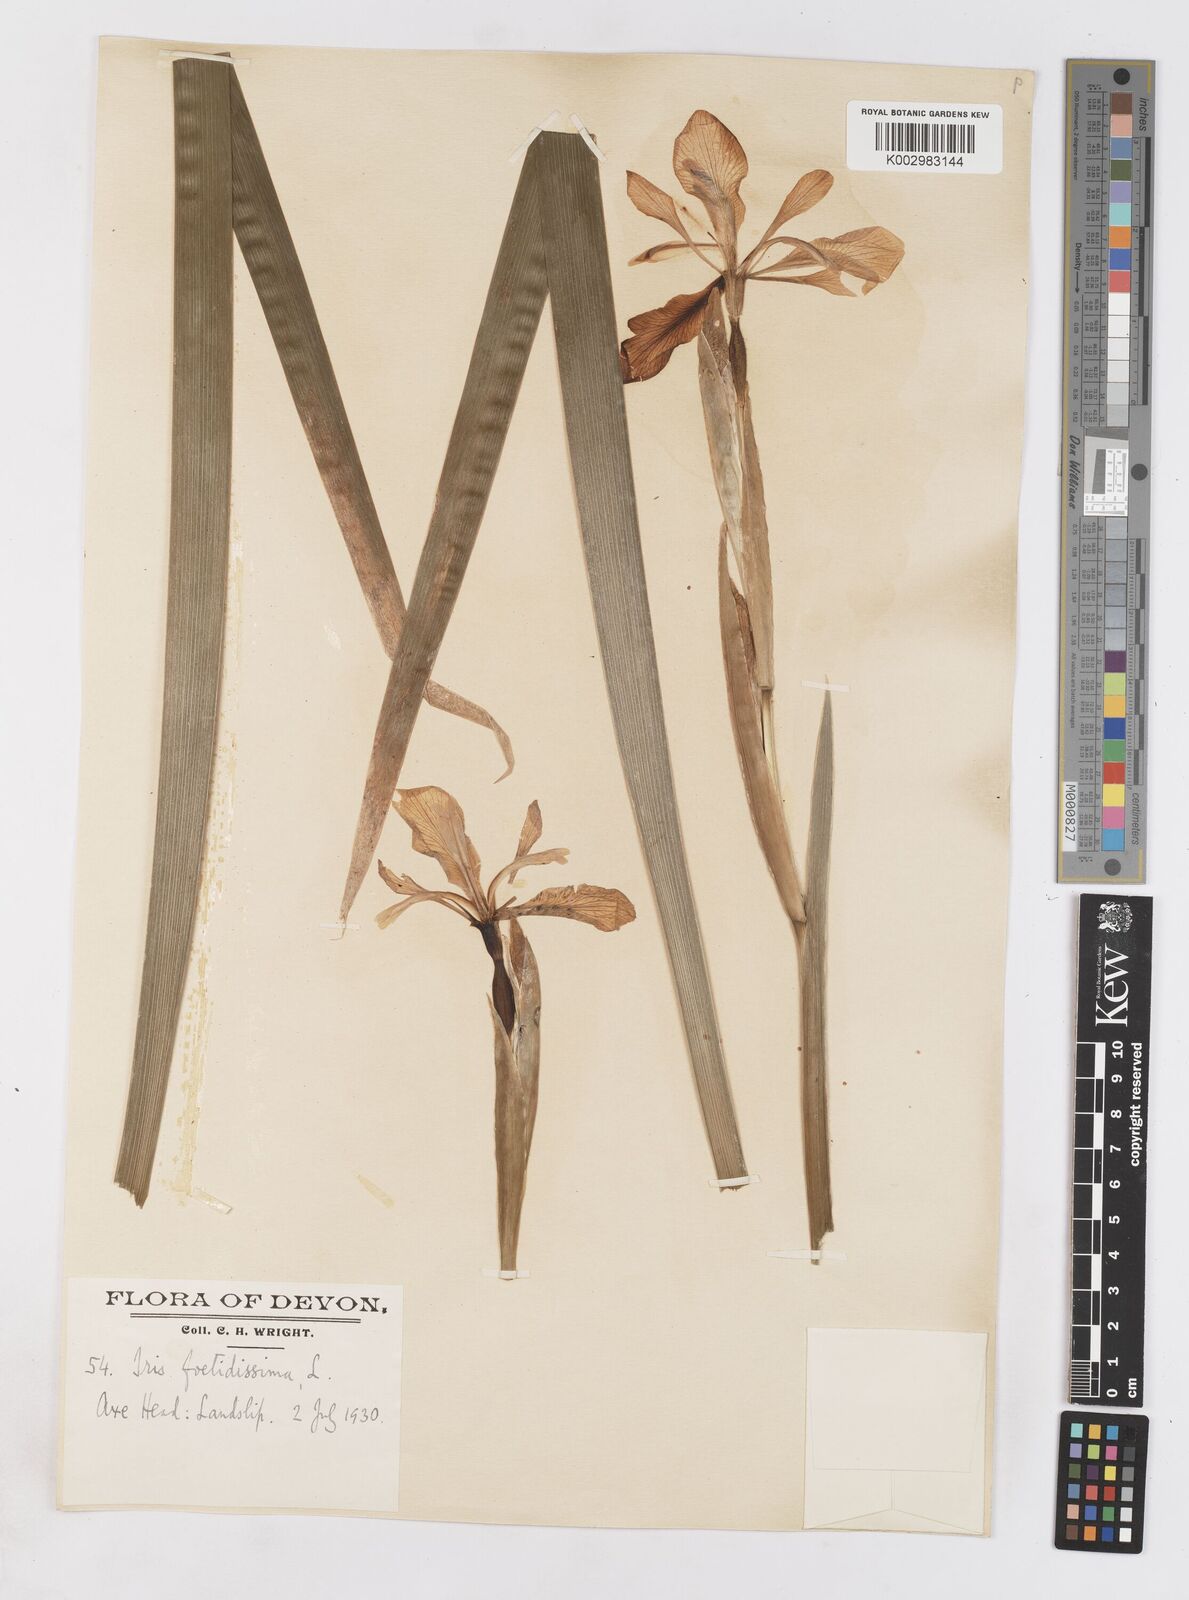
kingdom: Plantae
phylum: Tracheophyta
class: Liliopsida
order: Asparagales
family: Iridaceae
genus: Iris
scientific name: Iris foetidissima
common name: Stinking iris
